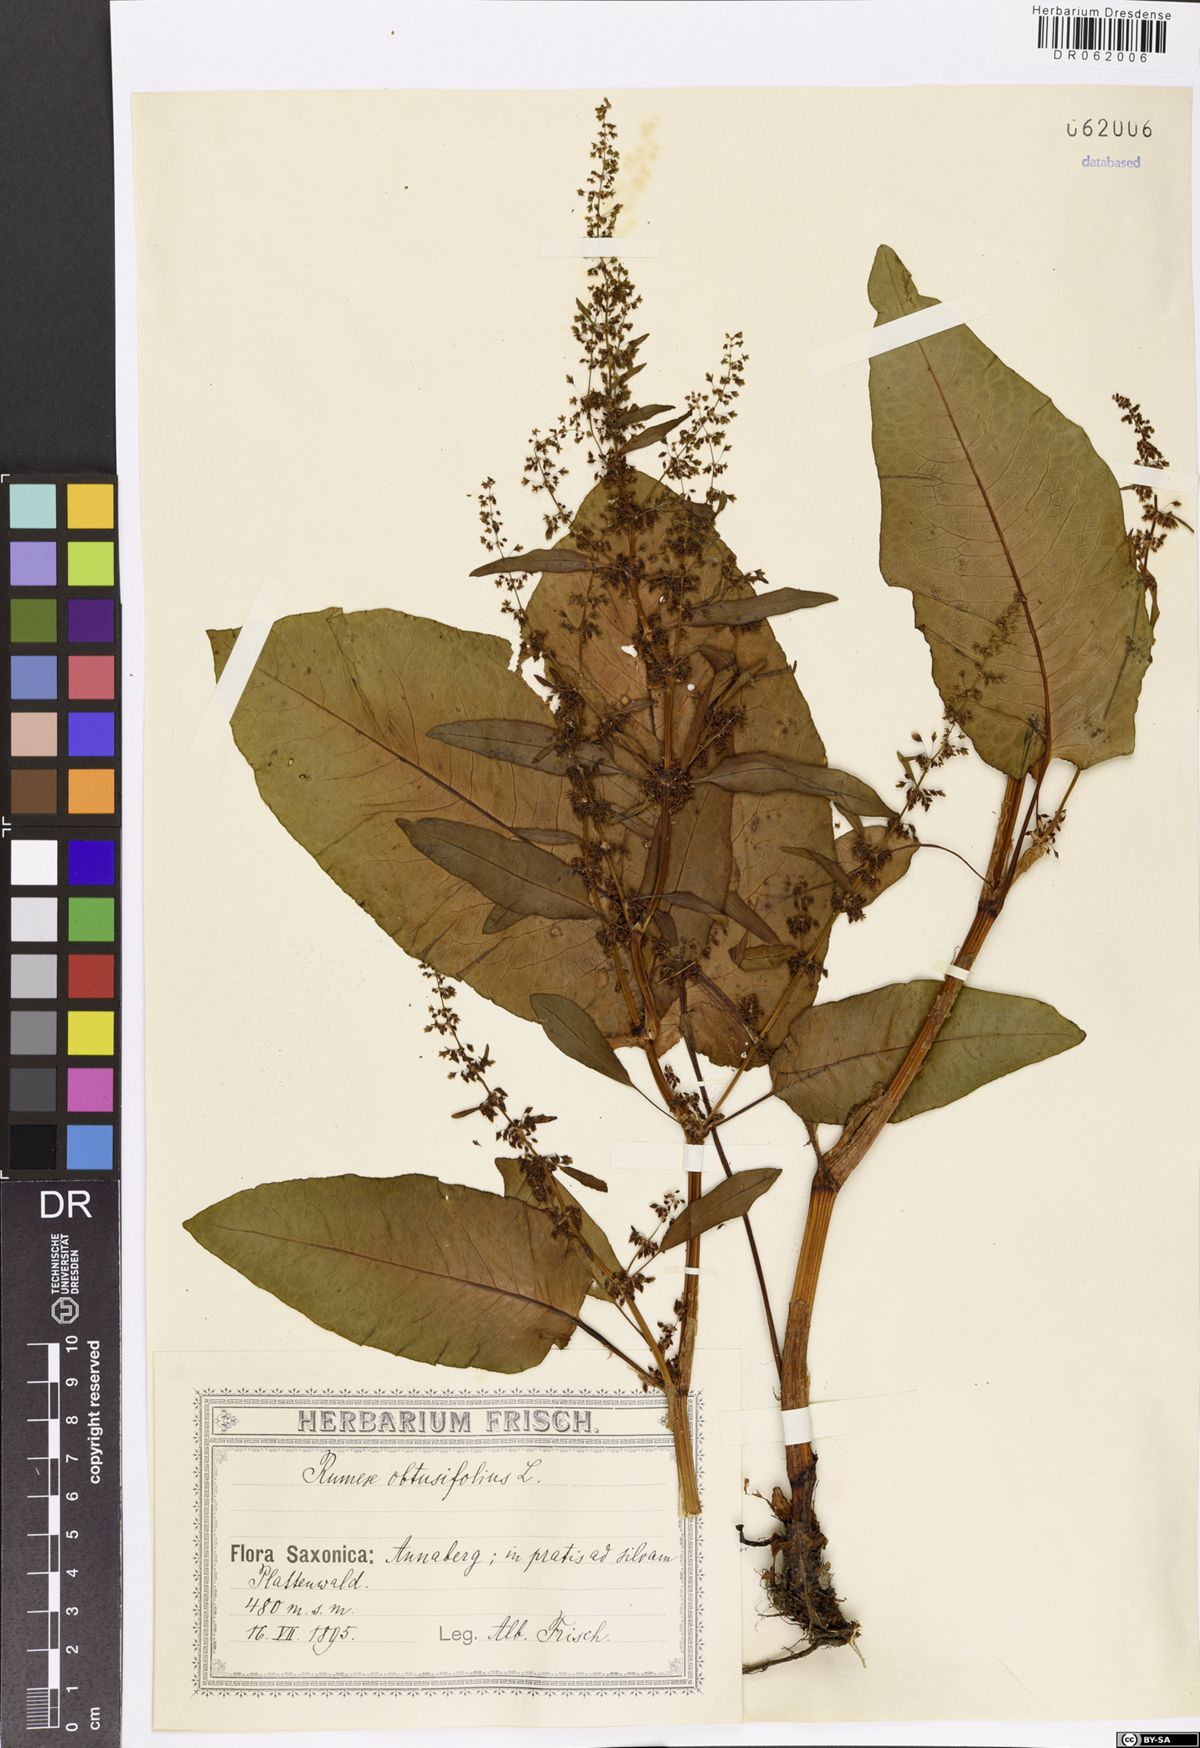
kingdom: Plantae
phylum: Tracheophyta
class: Magnoliopsida
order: Caryophyllales
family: Polygonaceae
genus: Rumex
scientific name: Rumex obtusifolius
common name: Bitter dock
